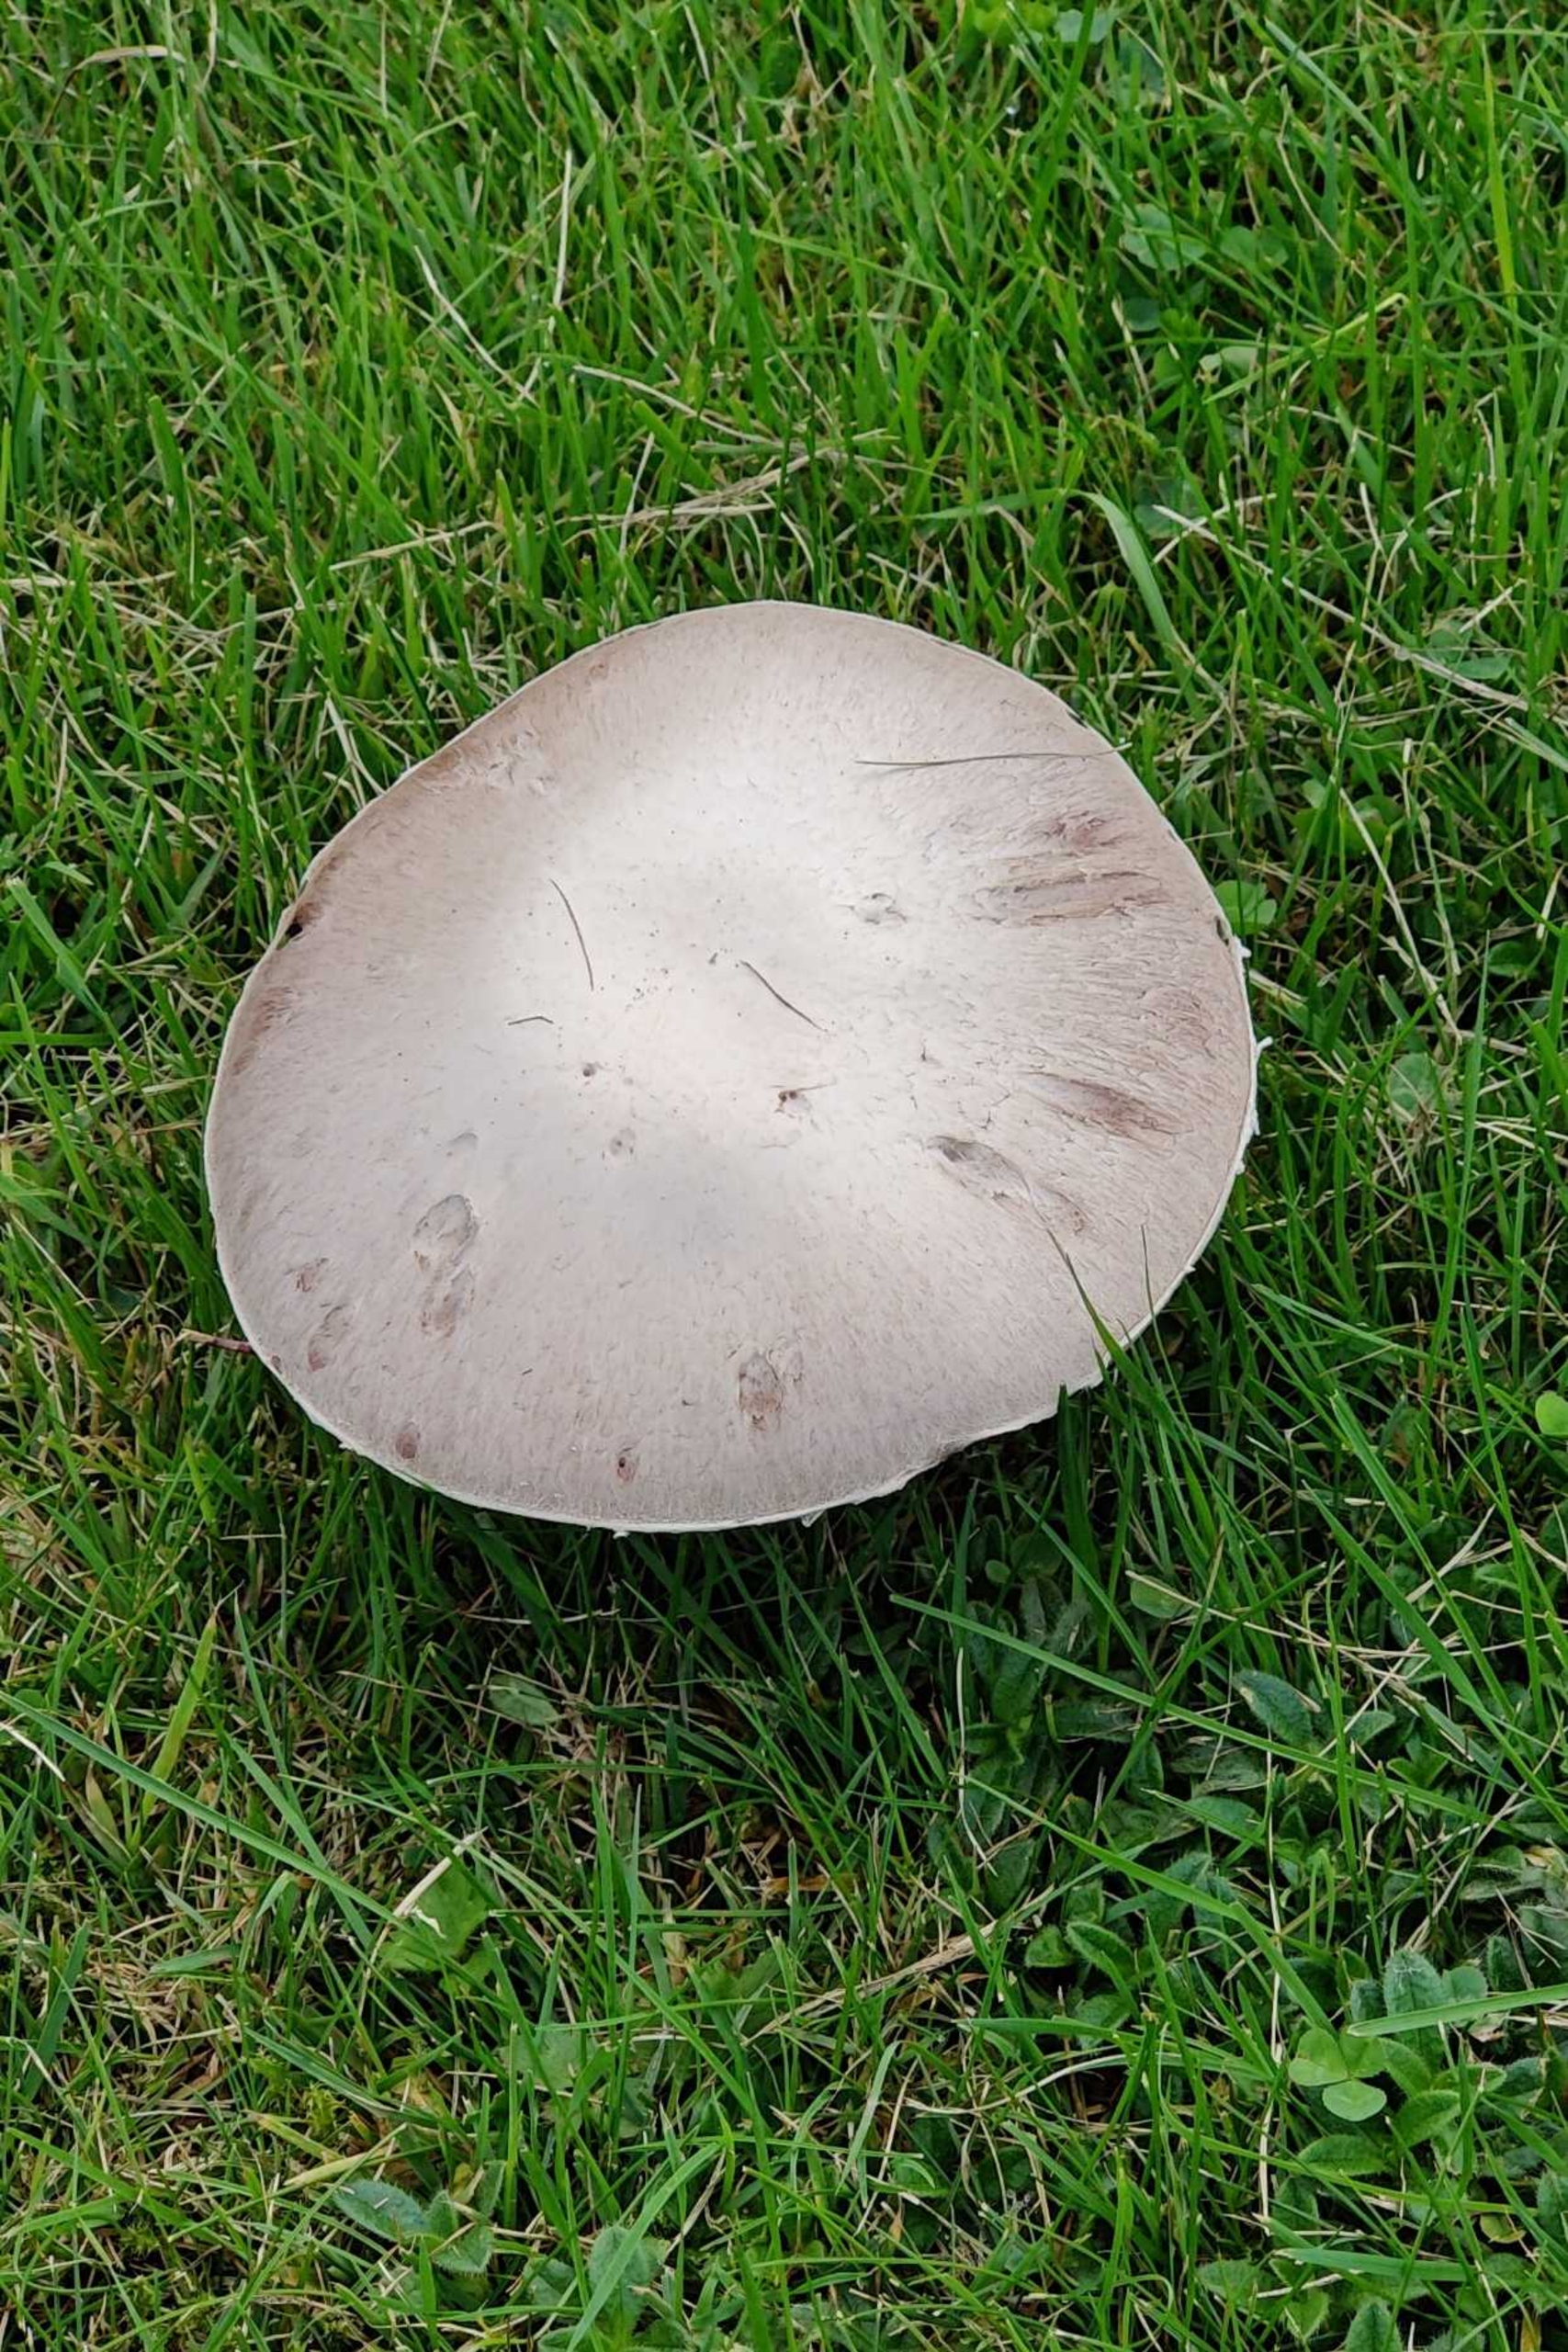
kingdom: Fungi
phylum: Basidiomycota
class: Agaricomycetes
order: Agaricales
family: Agaricaceae
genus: Agaricus
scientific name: Agaricus
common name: Champignon
